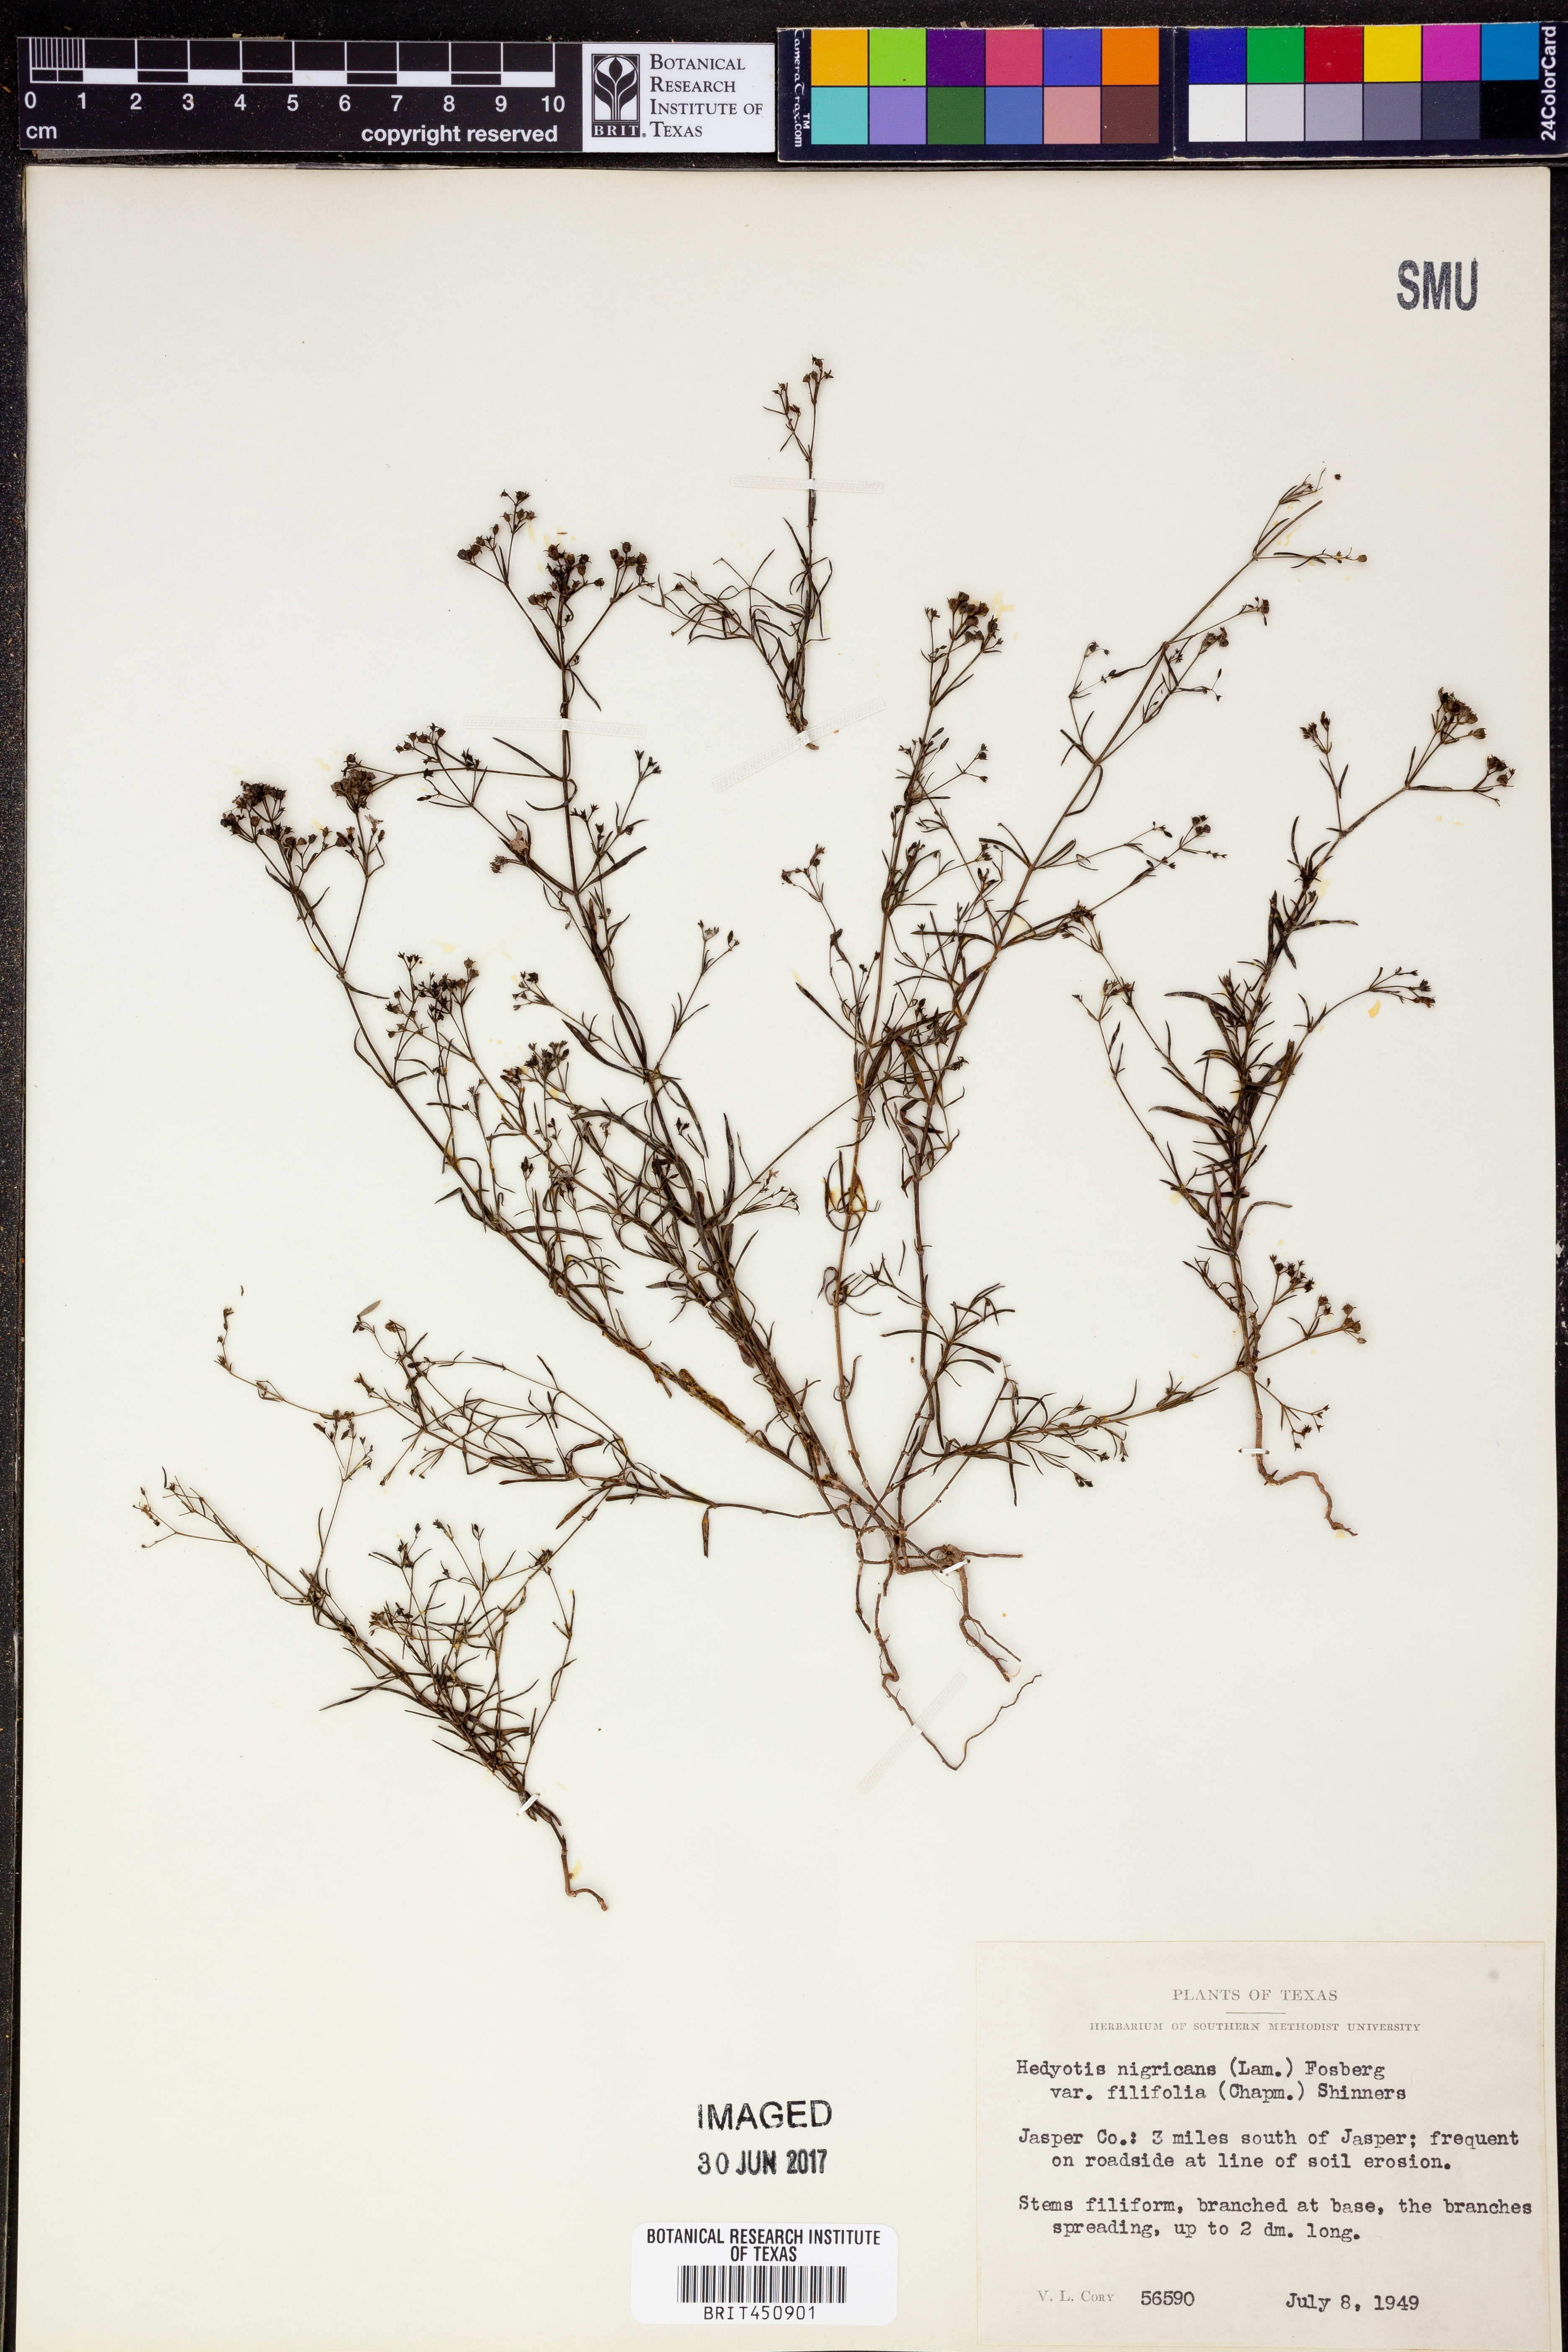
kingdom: Plantae
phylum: Tracheophyta
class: Magnoliopsida
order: Gentianales
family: Rubiaceae
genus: Stenaria
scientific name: Stenaria nigricans
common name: Diamondflowers
